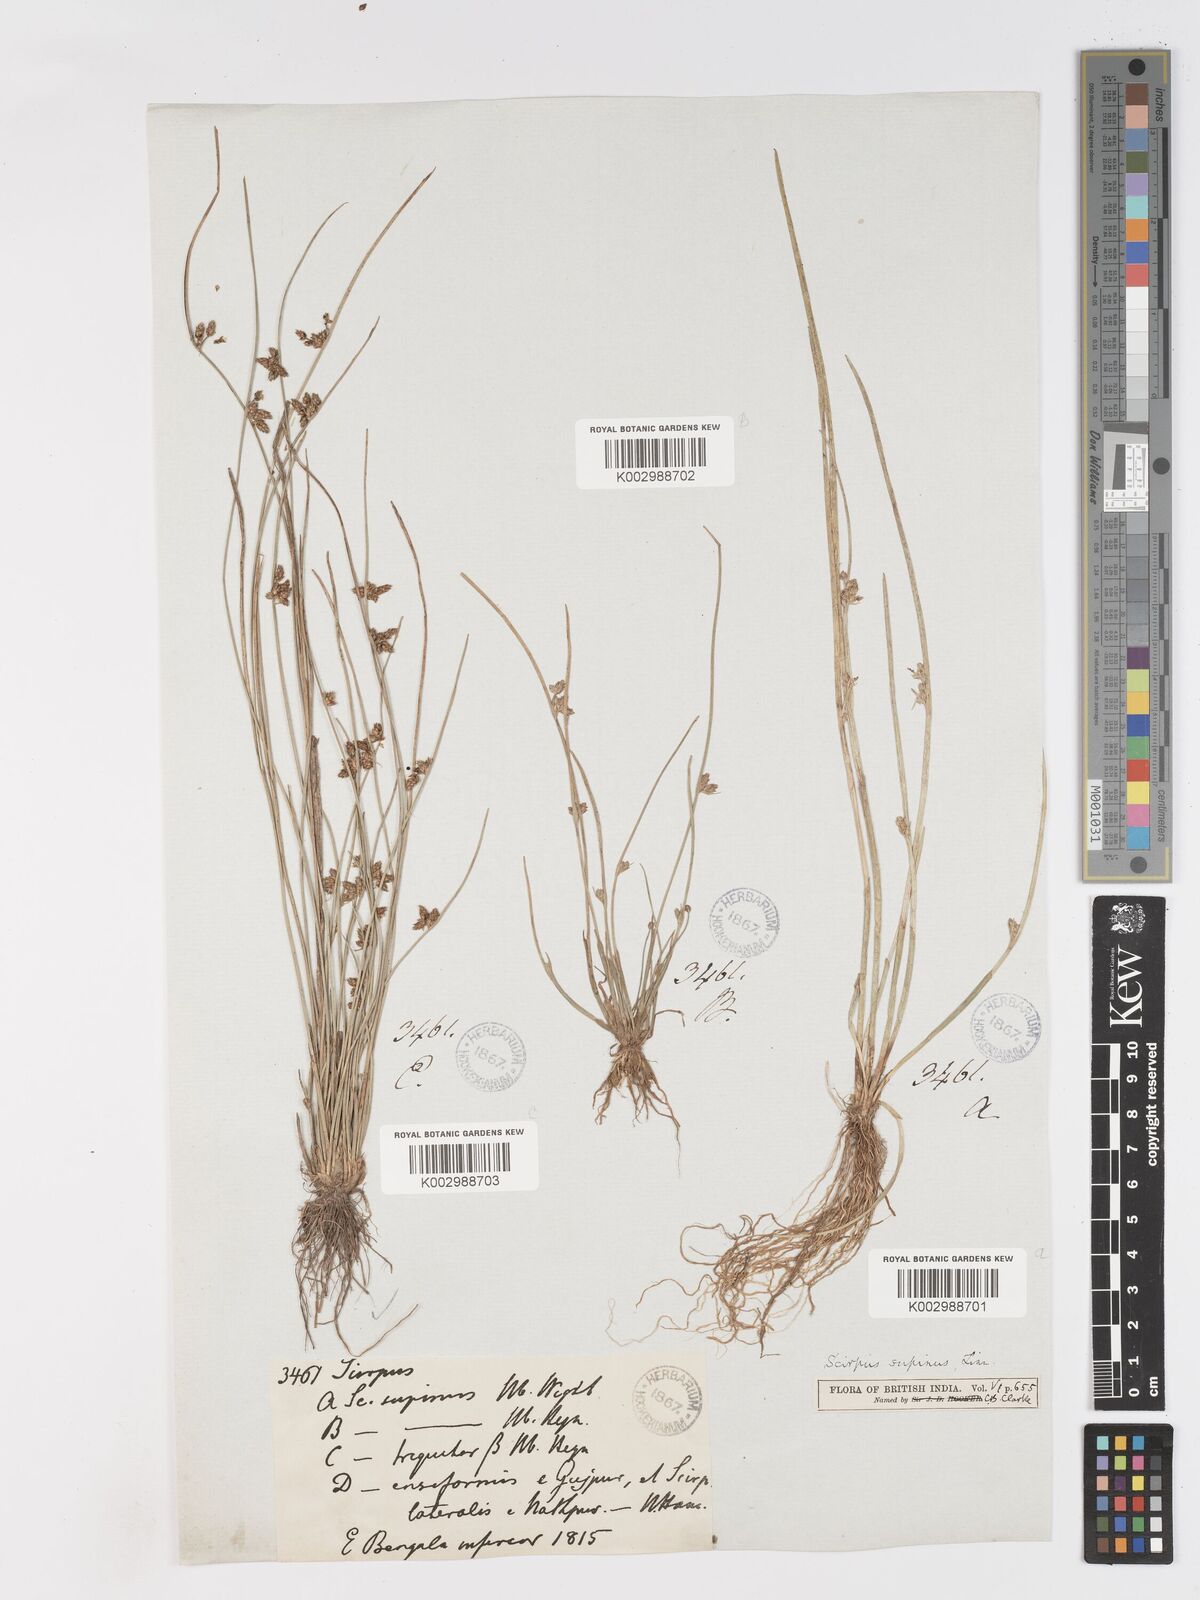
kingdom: Plantae
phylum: Tracheophyta
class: Liliopsida
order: Poales
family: Cyperaceae
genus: Schoenoplectiella
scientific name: Schoenoplectiella lateriflora
